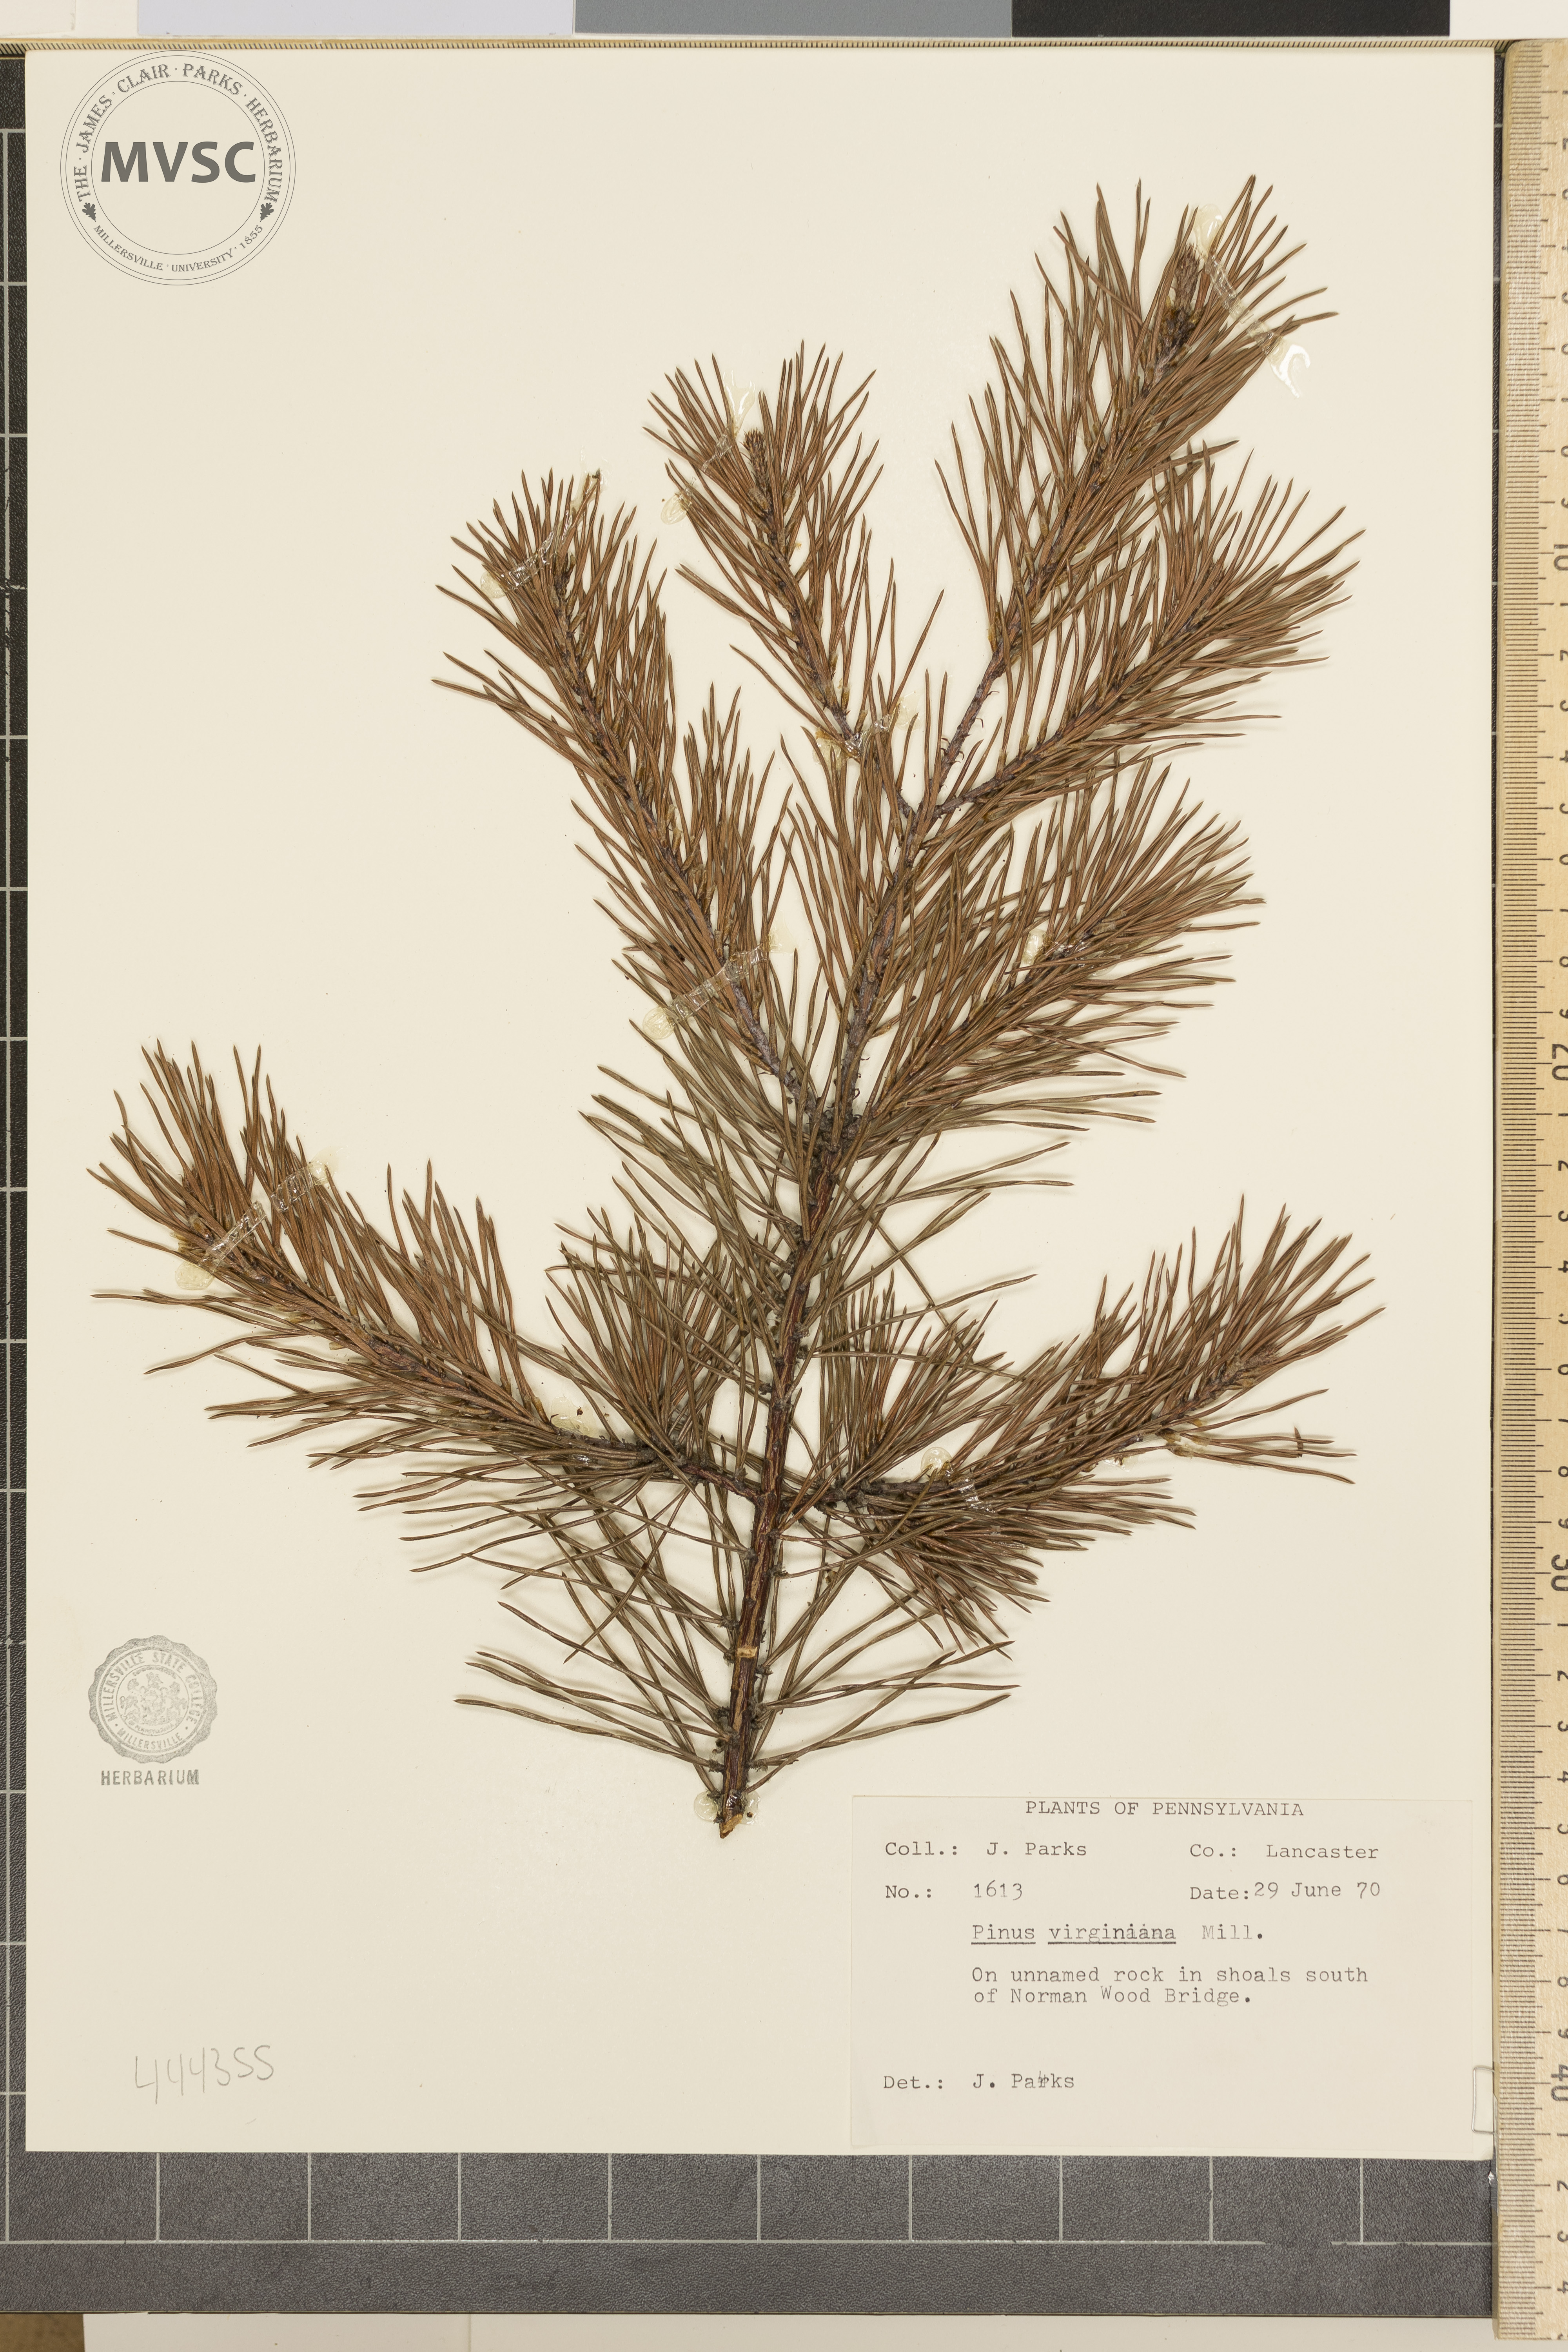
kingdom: Plantae
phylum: Tracheophyta
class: Pinopsida
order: Pinales
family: Pinaceae
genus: Pinus
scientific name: Pinus virginiana
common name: Scrub pine
